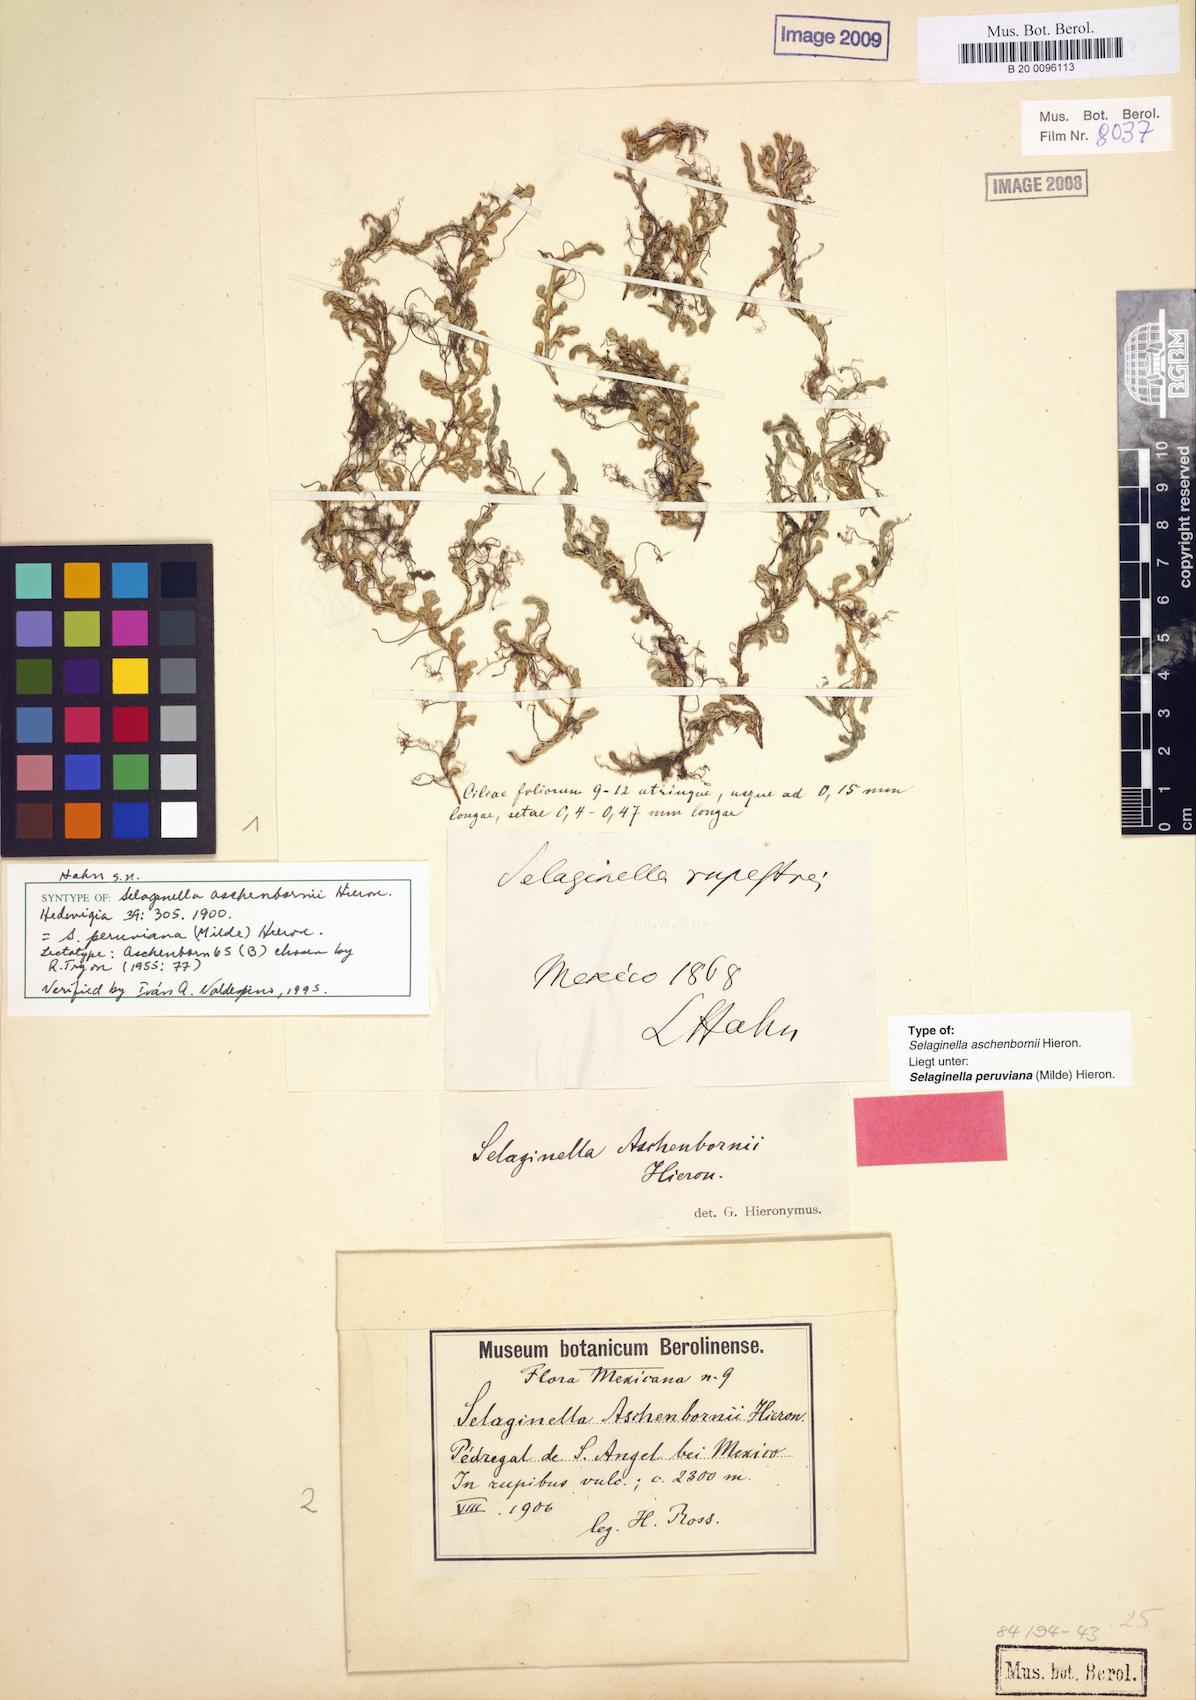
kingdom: Plantae
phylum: Tracheophyta
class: Lycopodiopsida
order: Selaginellales
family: Selaginellaceae
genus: Selaginella
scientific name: Selaginella peruviana
